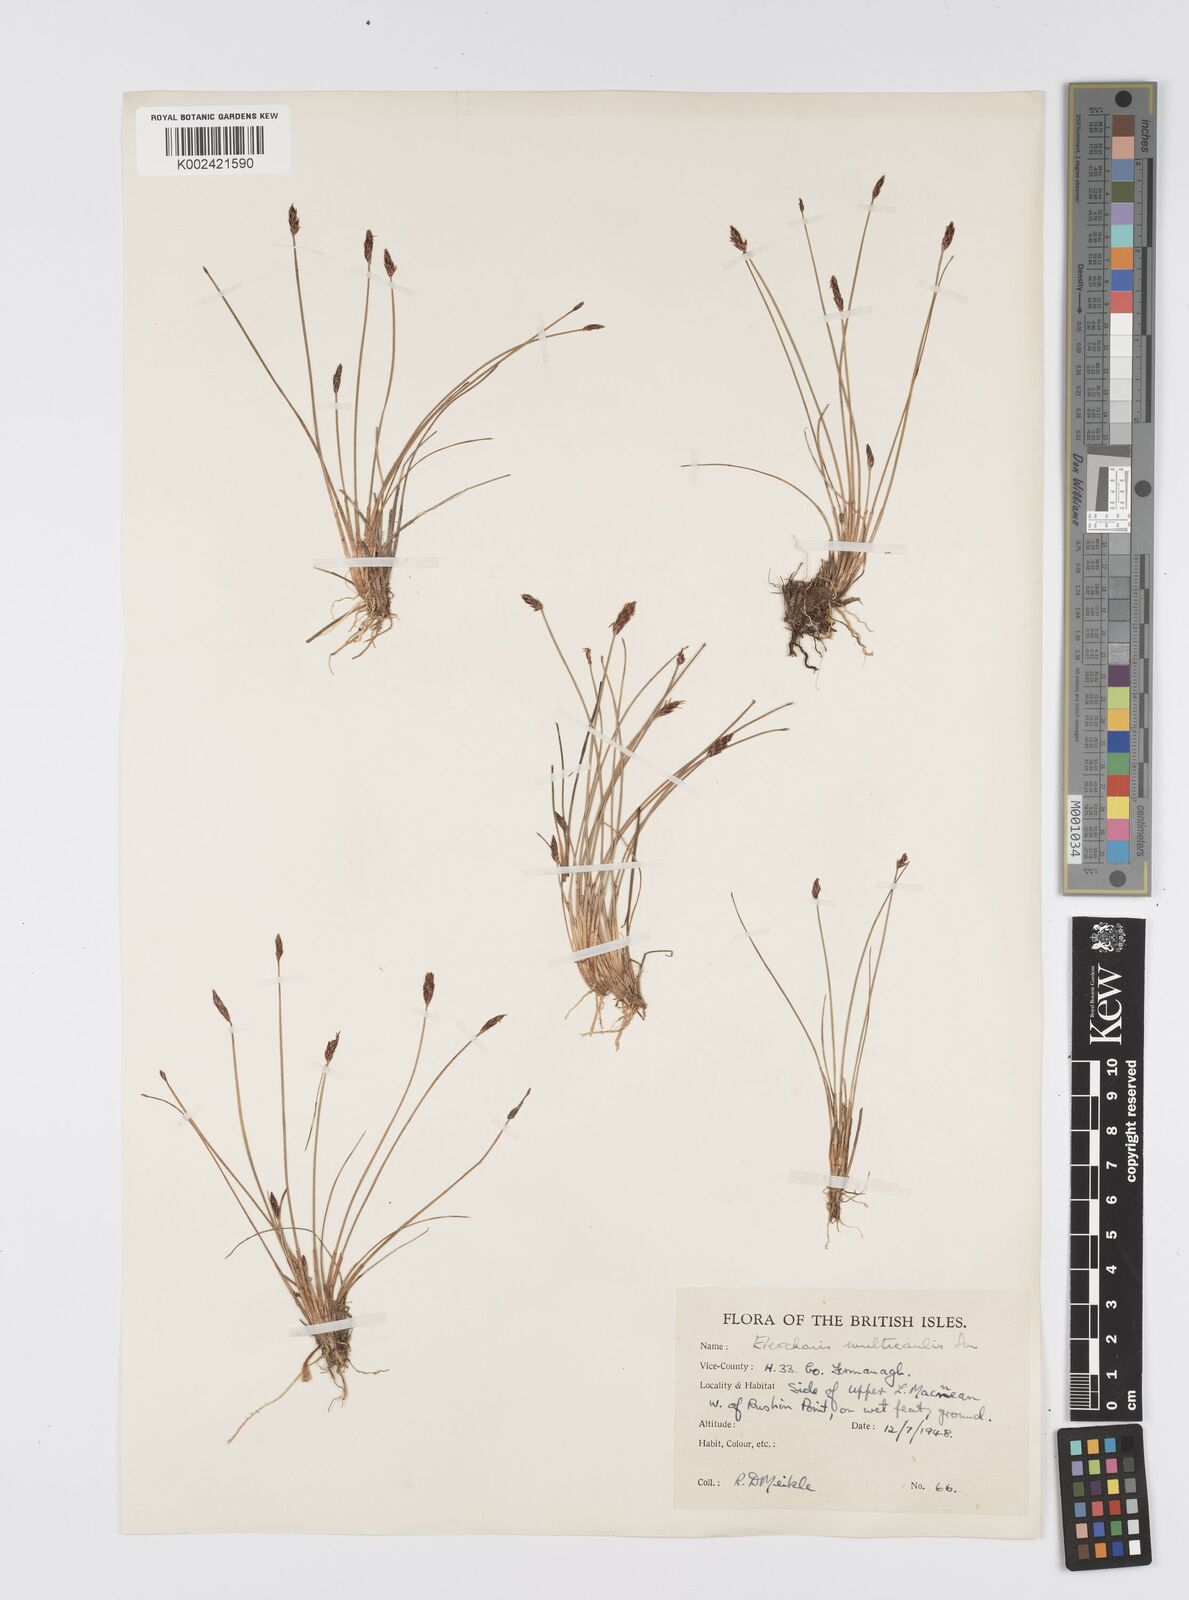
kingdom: Plantae
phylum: Tracheophyta
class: Liliopsida
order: Poales
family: Cyperaceae
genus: Eleocharis
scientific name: Eleocharis multicaulis
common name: Many-stalked spike-rush
